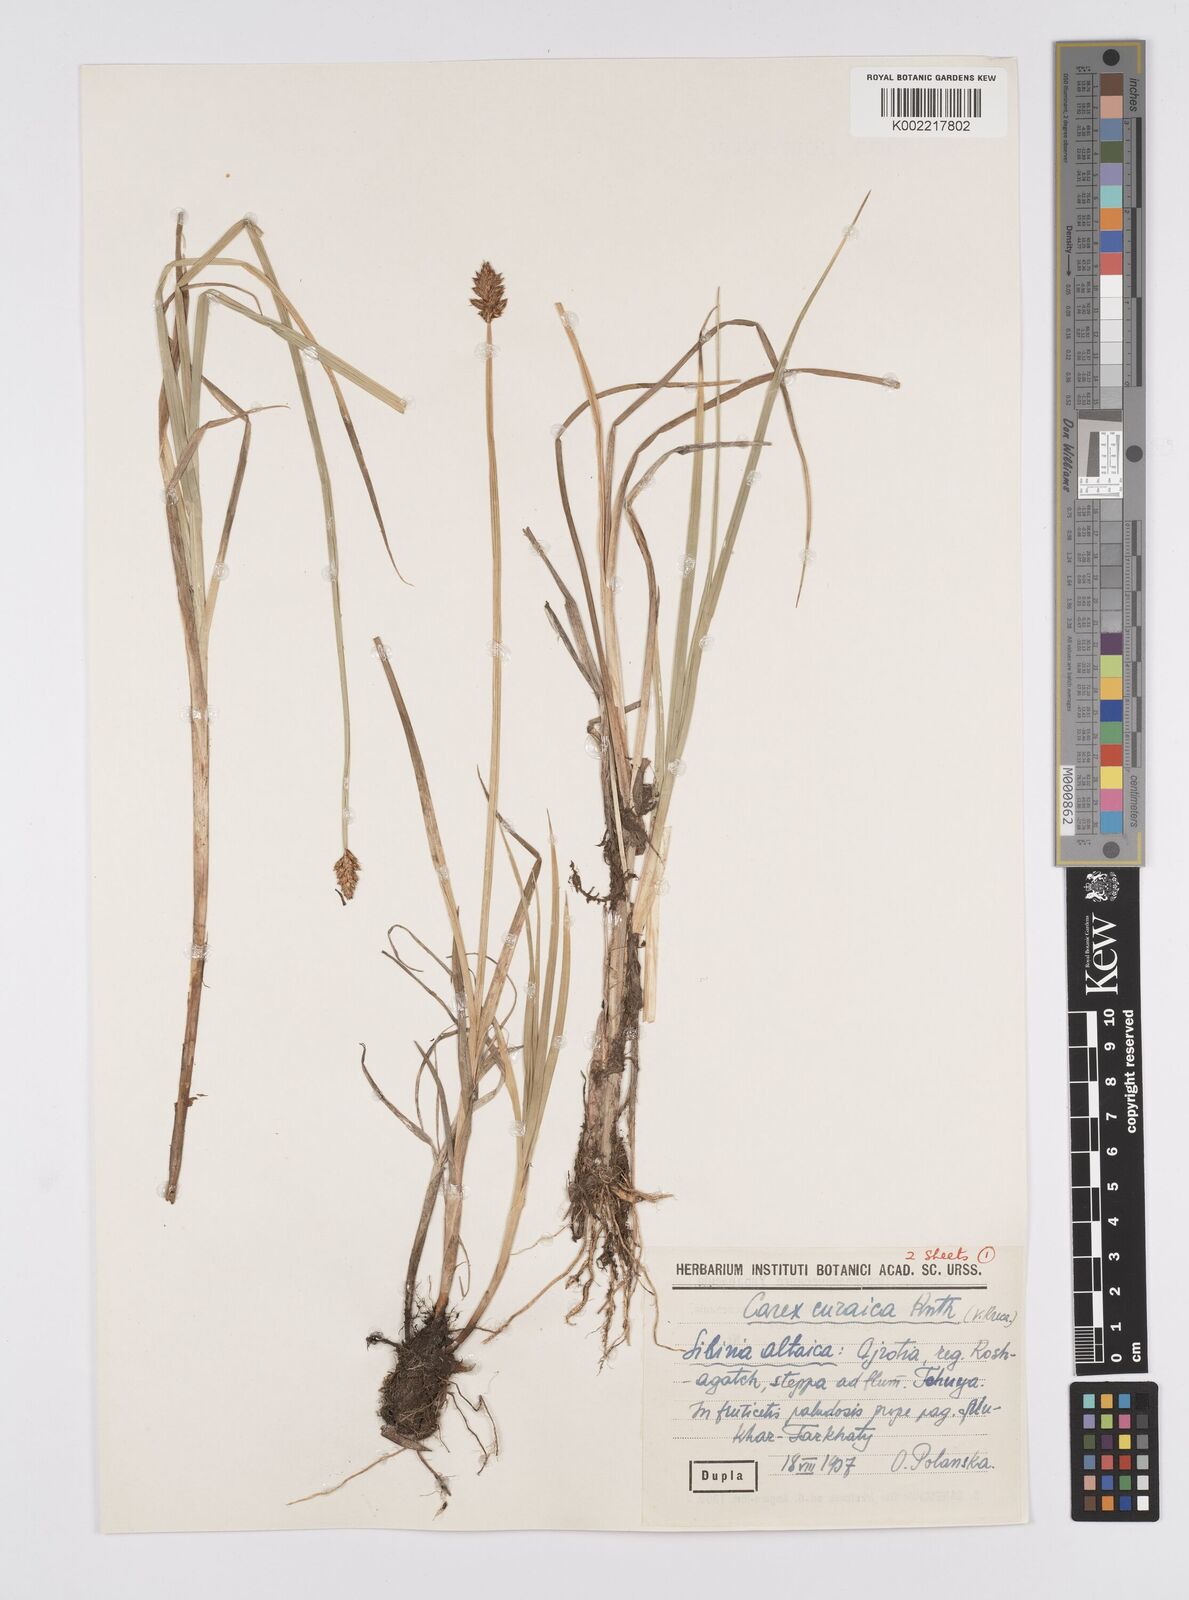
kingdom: Plantae
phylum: Tracheophyta
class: Liliopsida
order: Poales
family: Cyperaceae
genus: Carex
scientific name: Carex curaica
